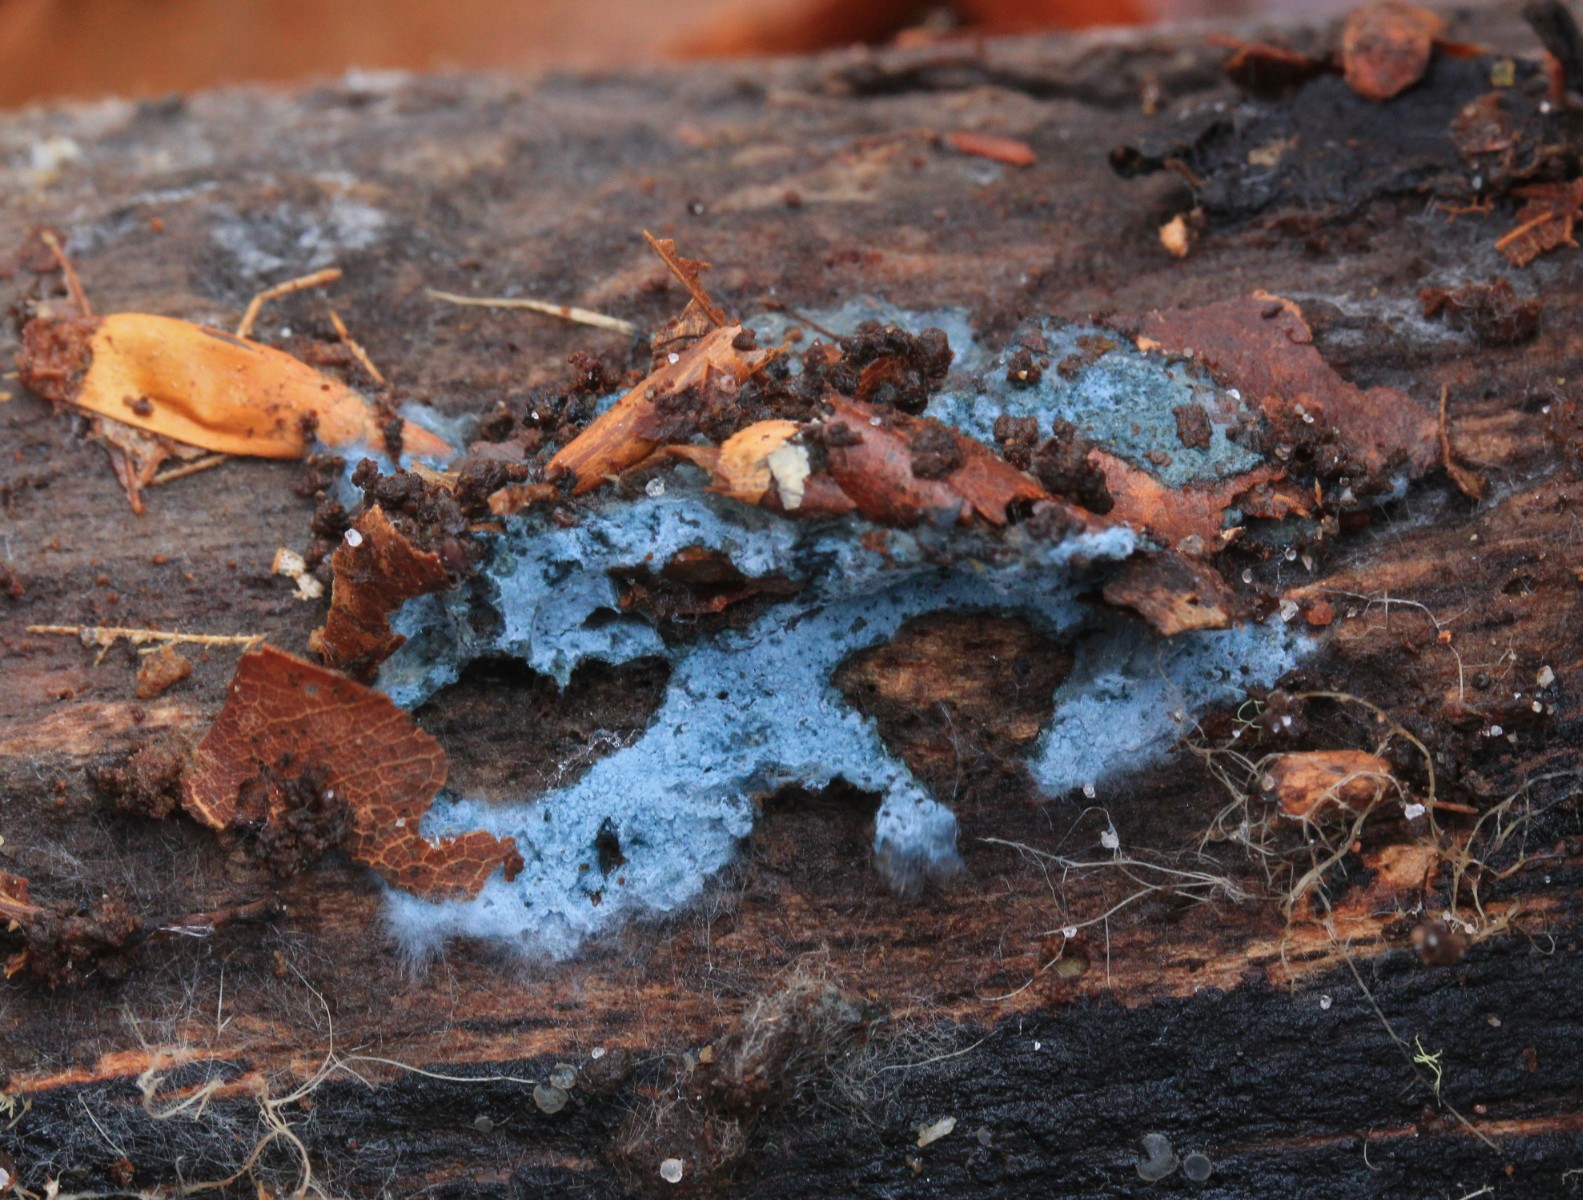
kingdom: Fungi
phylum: Basidiomycota
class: Agaricomycetes
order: Atheliales
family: Atheliaceae
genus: Byssocorticium
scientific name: Byssocorticium atrovirens
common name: blå førnehinde
